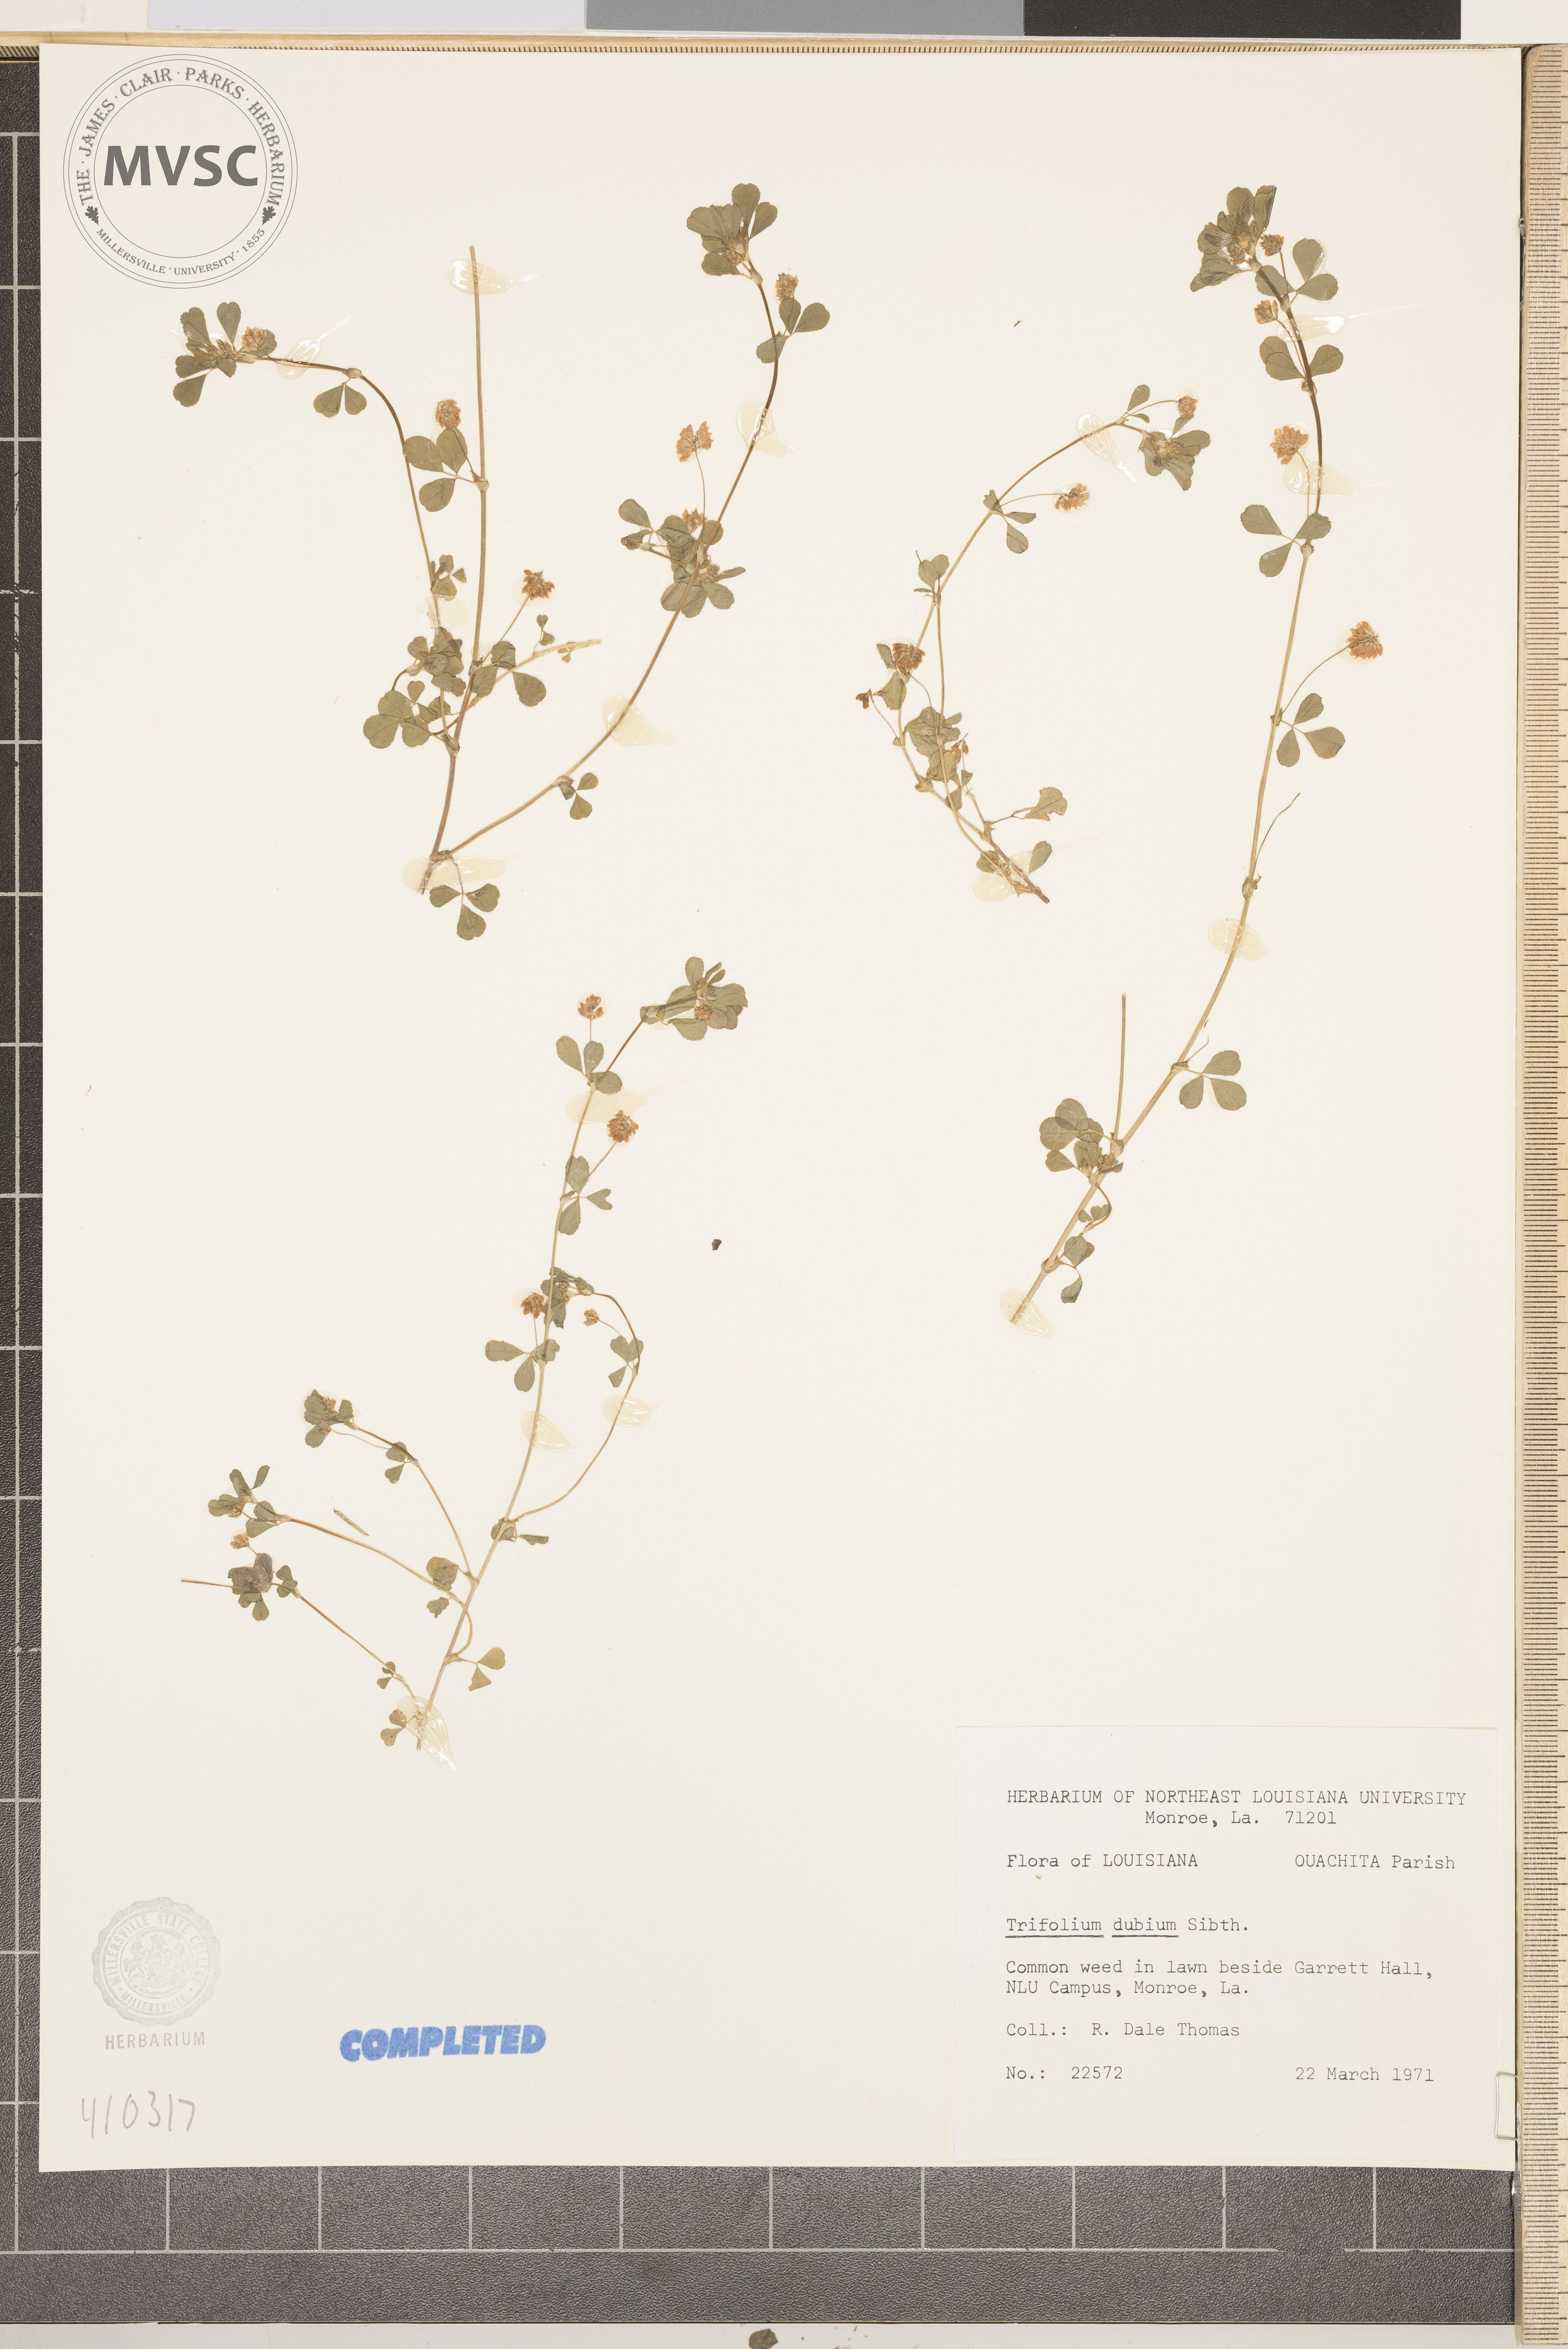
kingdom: Plantae
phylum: Tracheophyta
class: Magnoliopsida
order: Fabales
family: Fabaceae
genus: Trifolium
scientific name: Trifolium dubium
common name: Suckling clover
